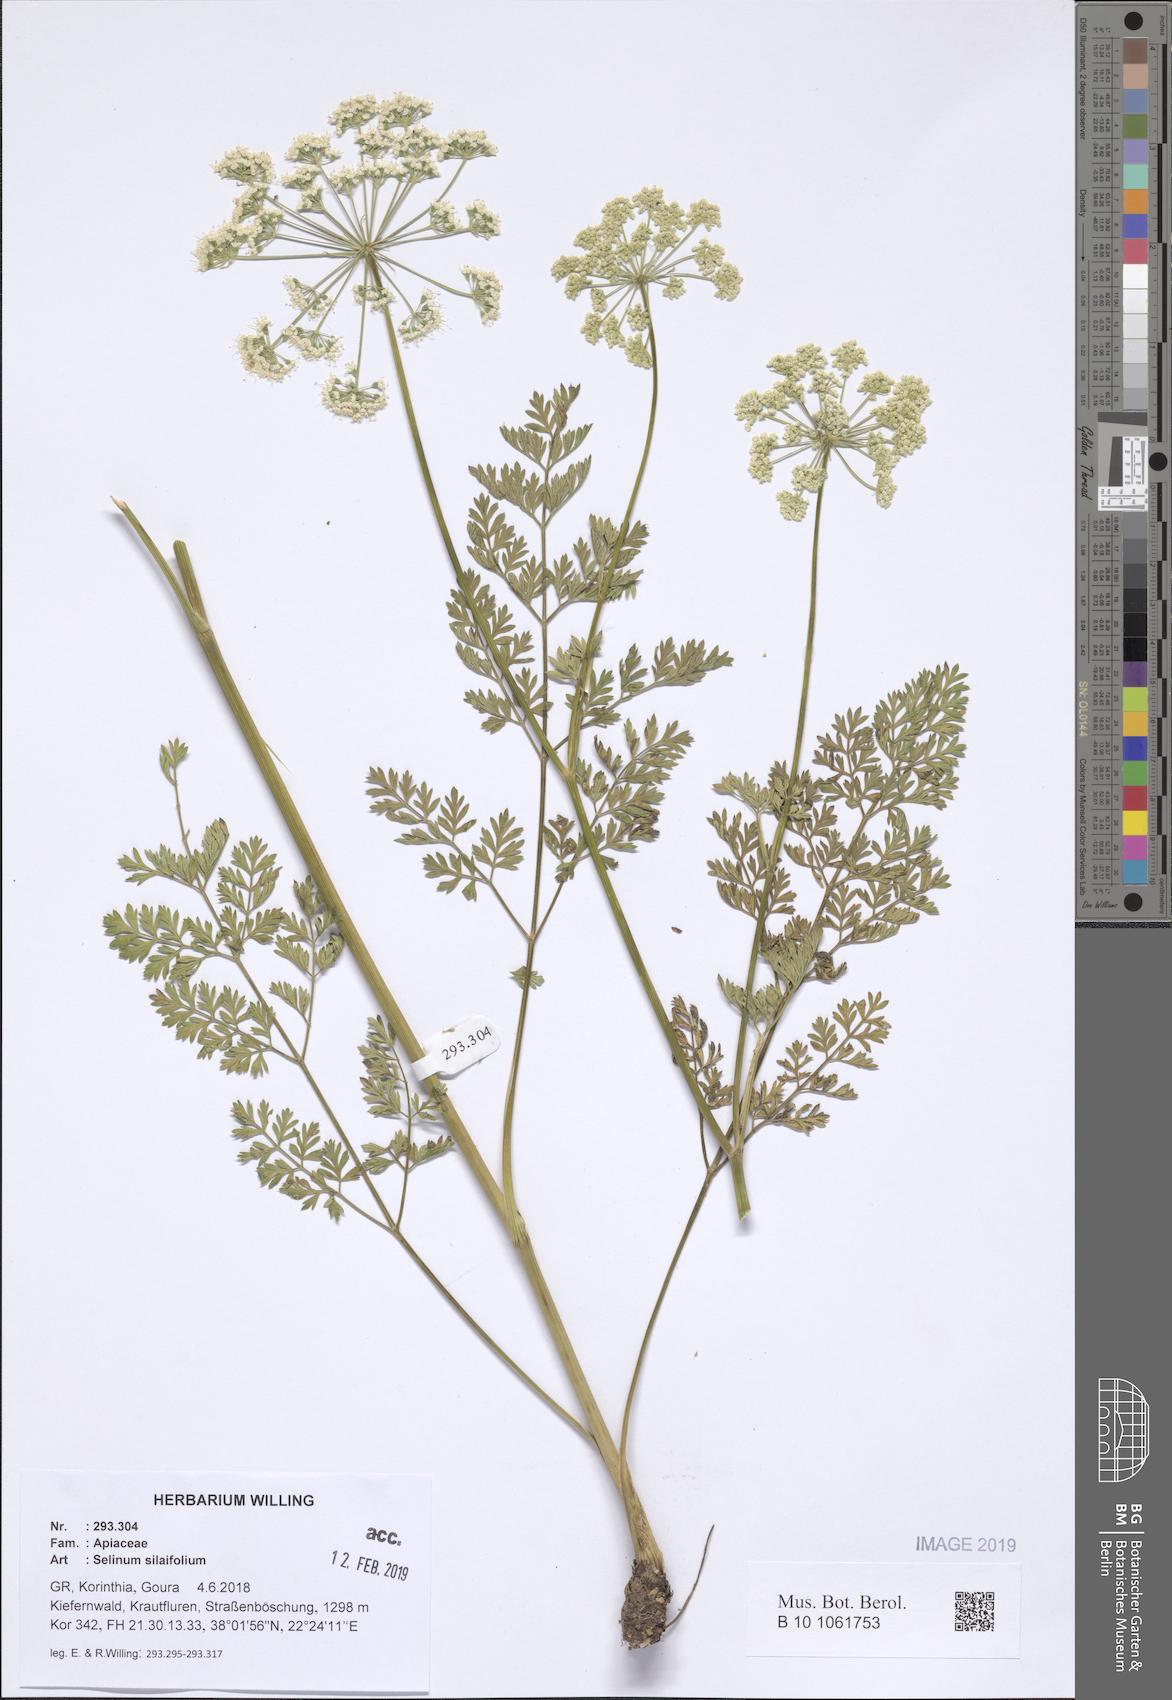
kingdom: Plantae
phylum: Tracheophyta
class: Magnoliopsida
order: Apiales
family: Apiaceae
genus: Katapsuxis
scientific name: Katapsuxis silaifolia
